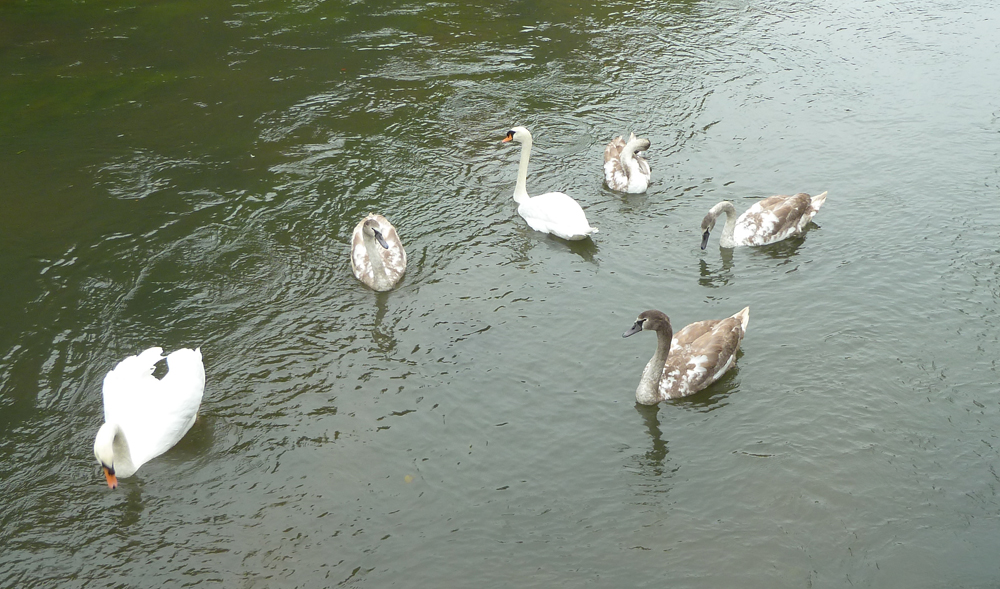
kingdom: Animalia
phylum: Chordata
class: Aves
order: Anseriformes
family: Anatidae
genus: Cygnus
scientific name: Cygnus olor
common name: Mute swan
